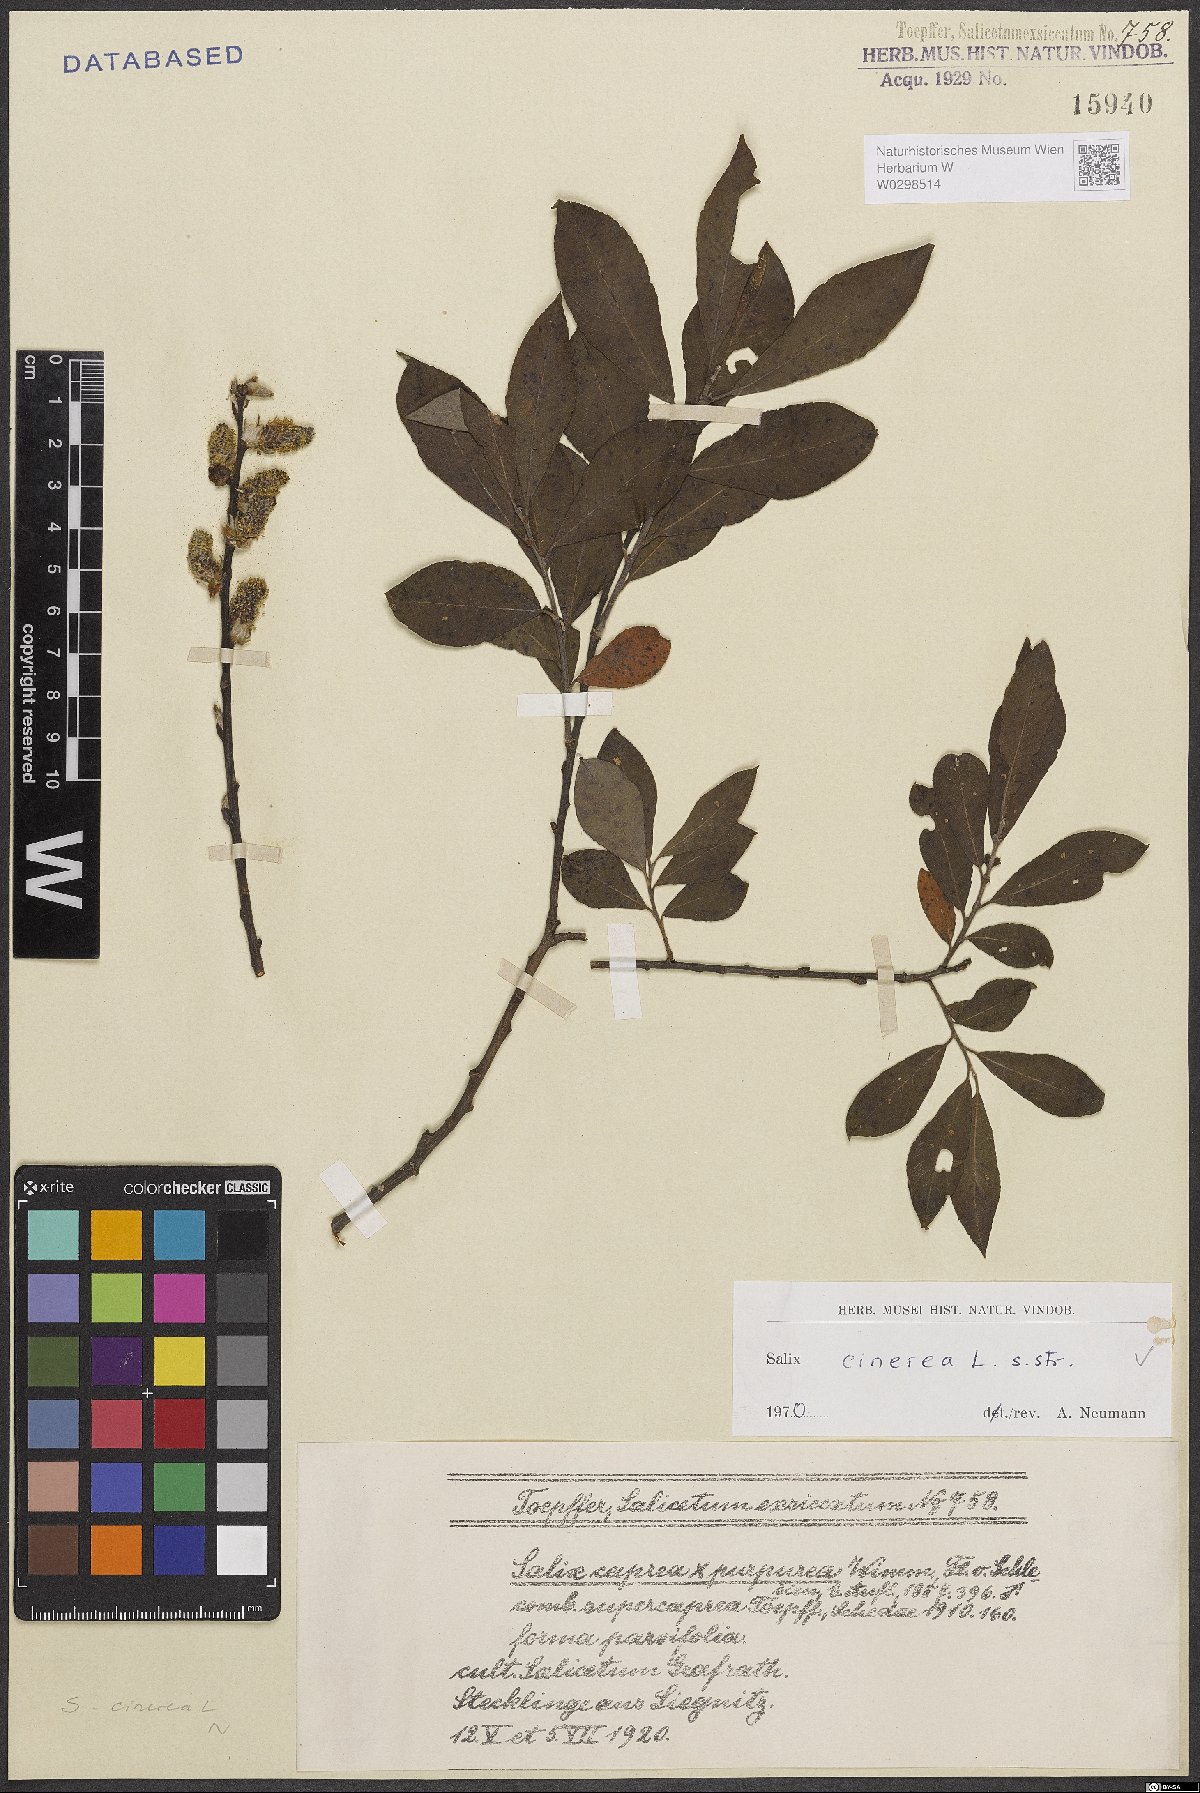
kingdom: Plantae
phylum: Tracheophyta
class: Magnoliopsida
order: Malpighiales
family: Salicaceae
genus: Salix
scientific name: Salix cinerea
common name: Common sallow
